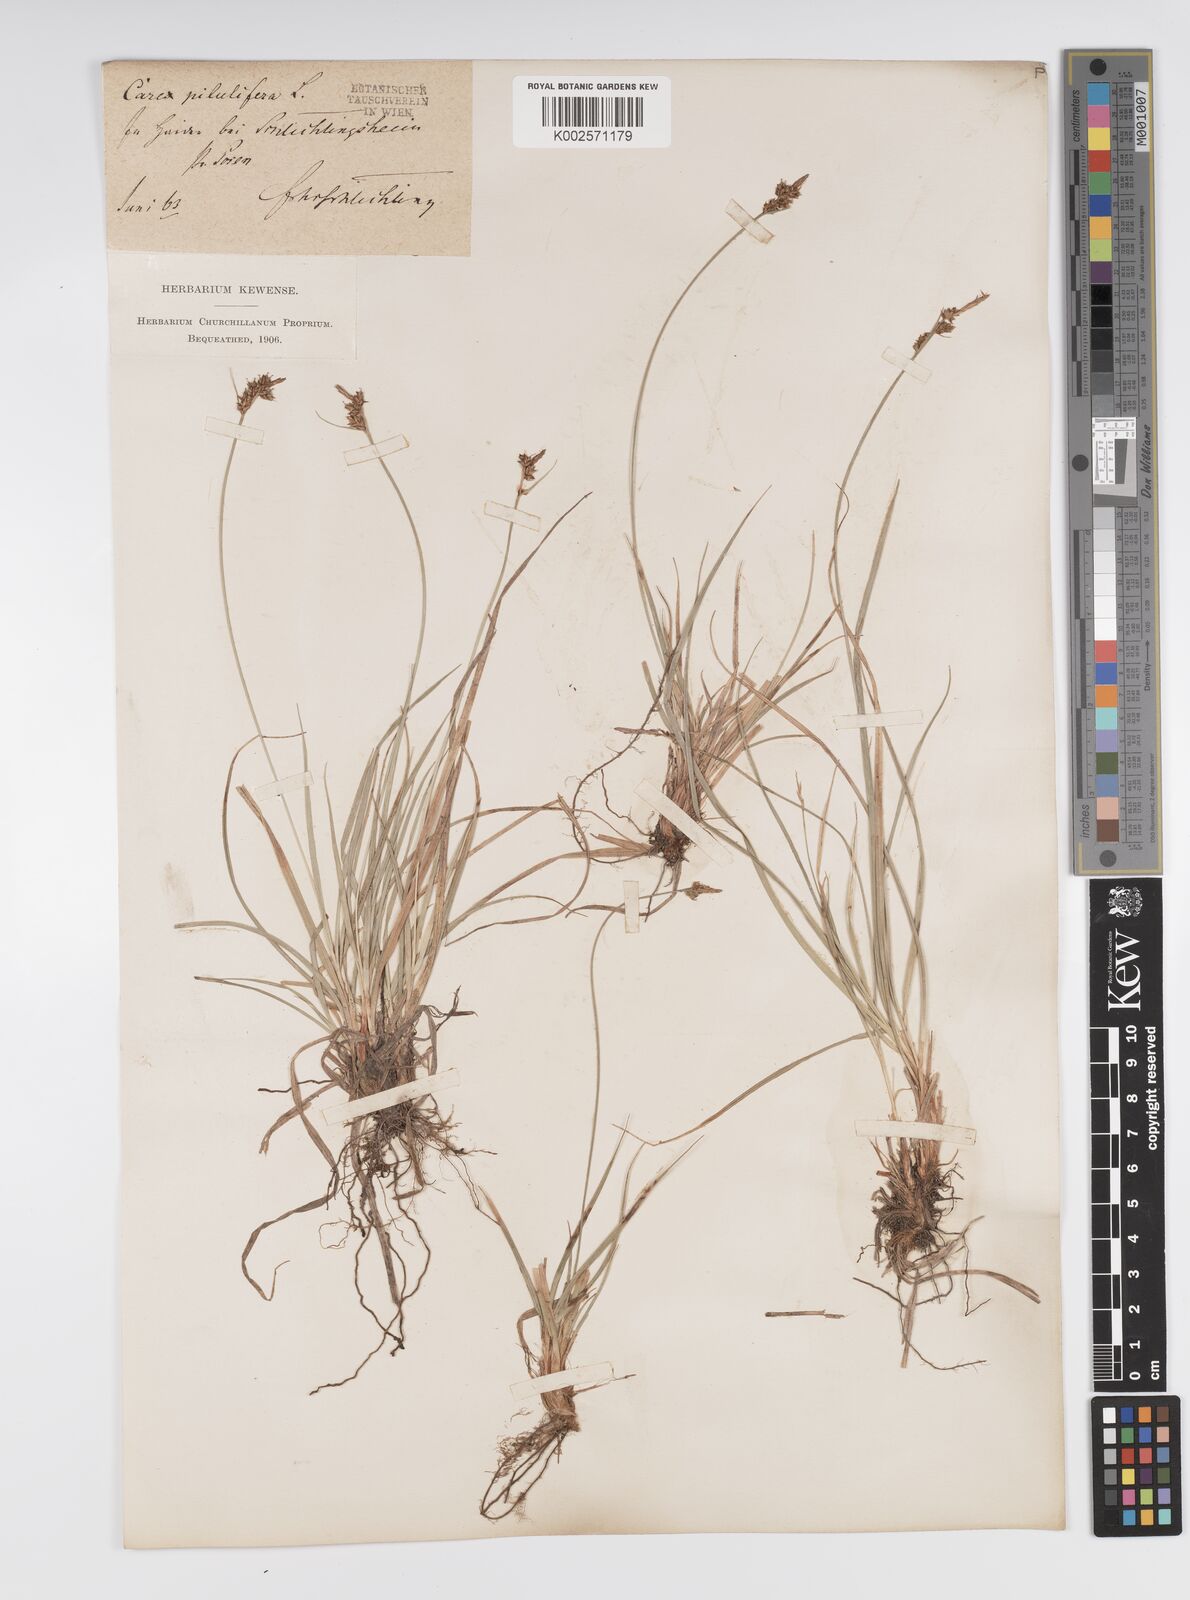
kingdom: Plantae
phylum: Tracheophyta
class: Liliopsida
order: Poales
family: Cyperaceae
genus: Carex
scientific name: Carex pilulifera
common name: Pill sedge
